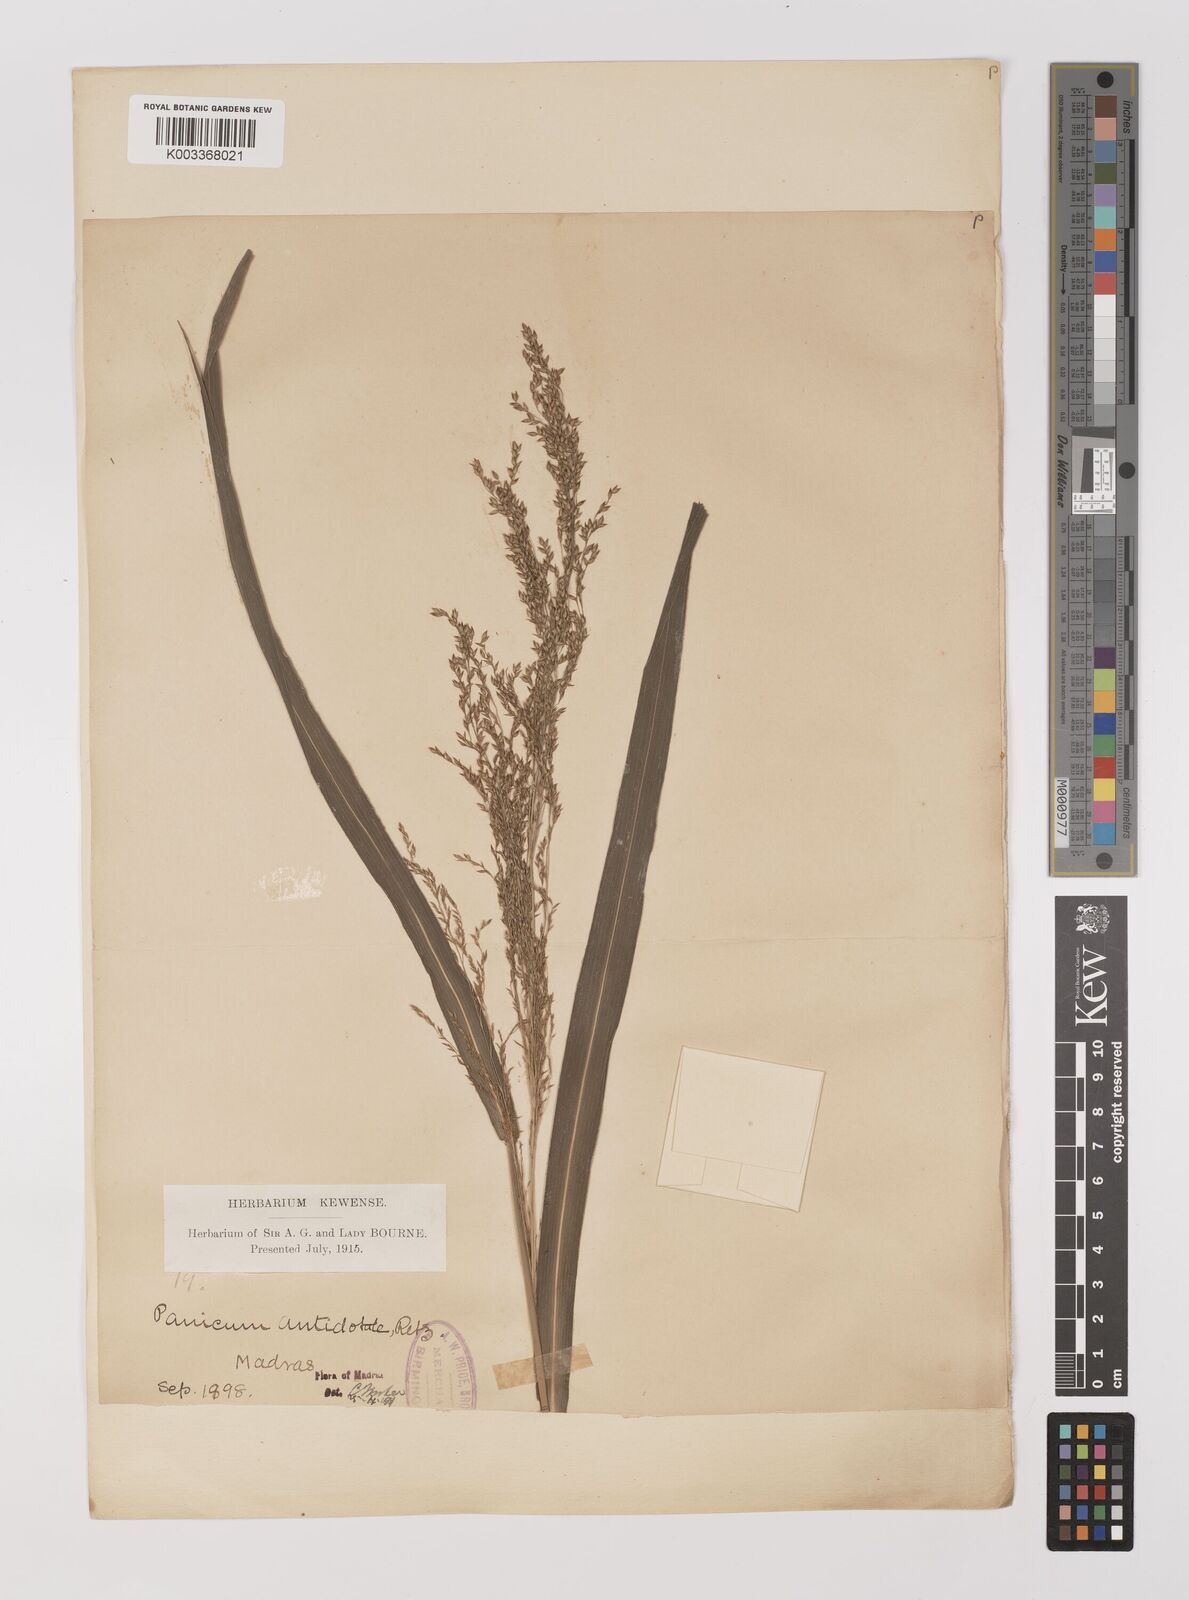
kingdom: Plantae
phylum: Tracheophyta
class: Liliopsida
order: Poales
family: Poaceae
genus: Panicum
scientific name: Panicum antidotale
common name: Blue panicum
